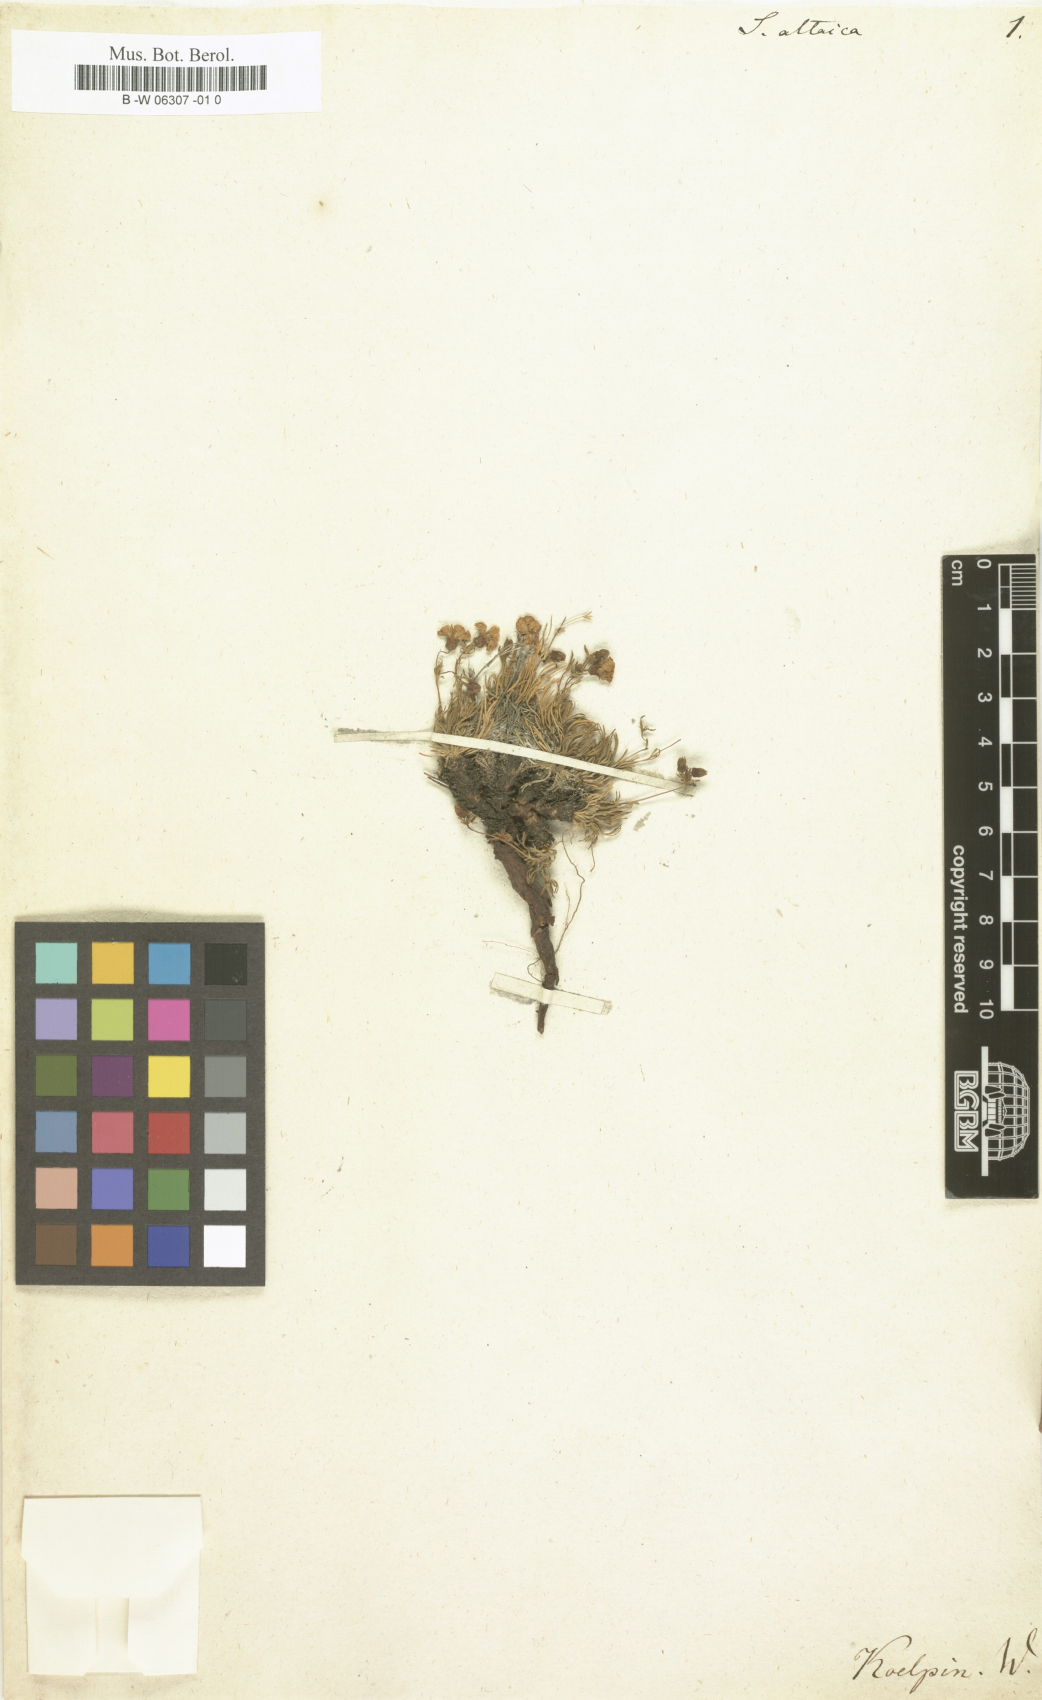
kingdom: Plantae
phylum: Tracheophyta
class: Magnoliopsida
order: Rosales
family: Rosaceae
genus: Chamaerhodos
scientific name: Chamaerhodos altaica
